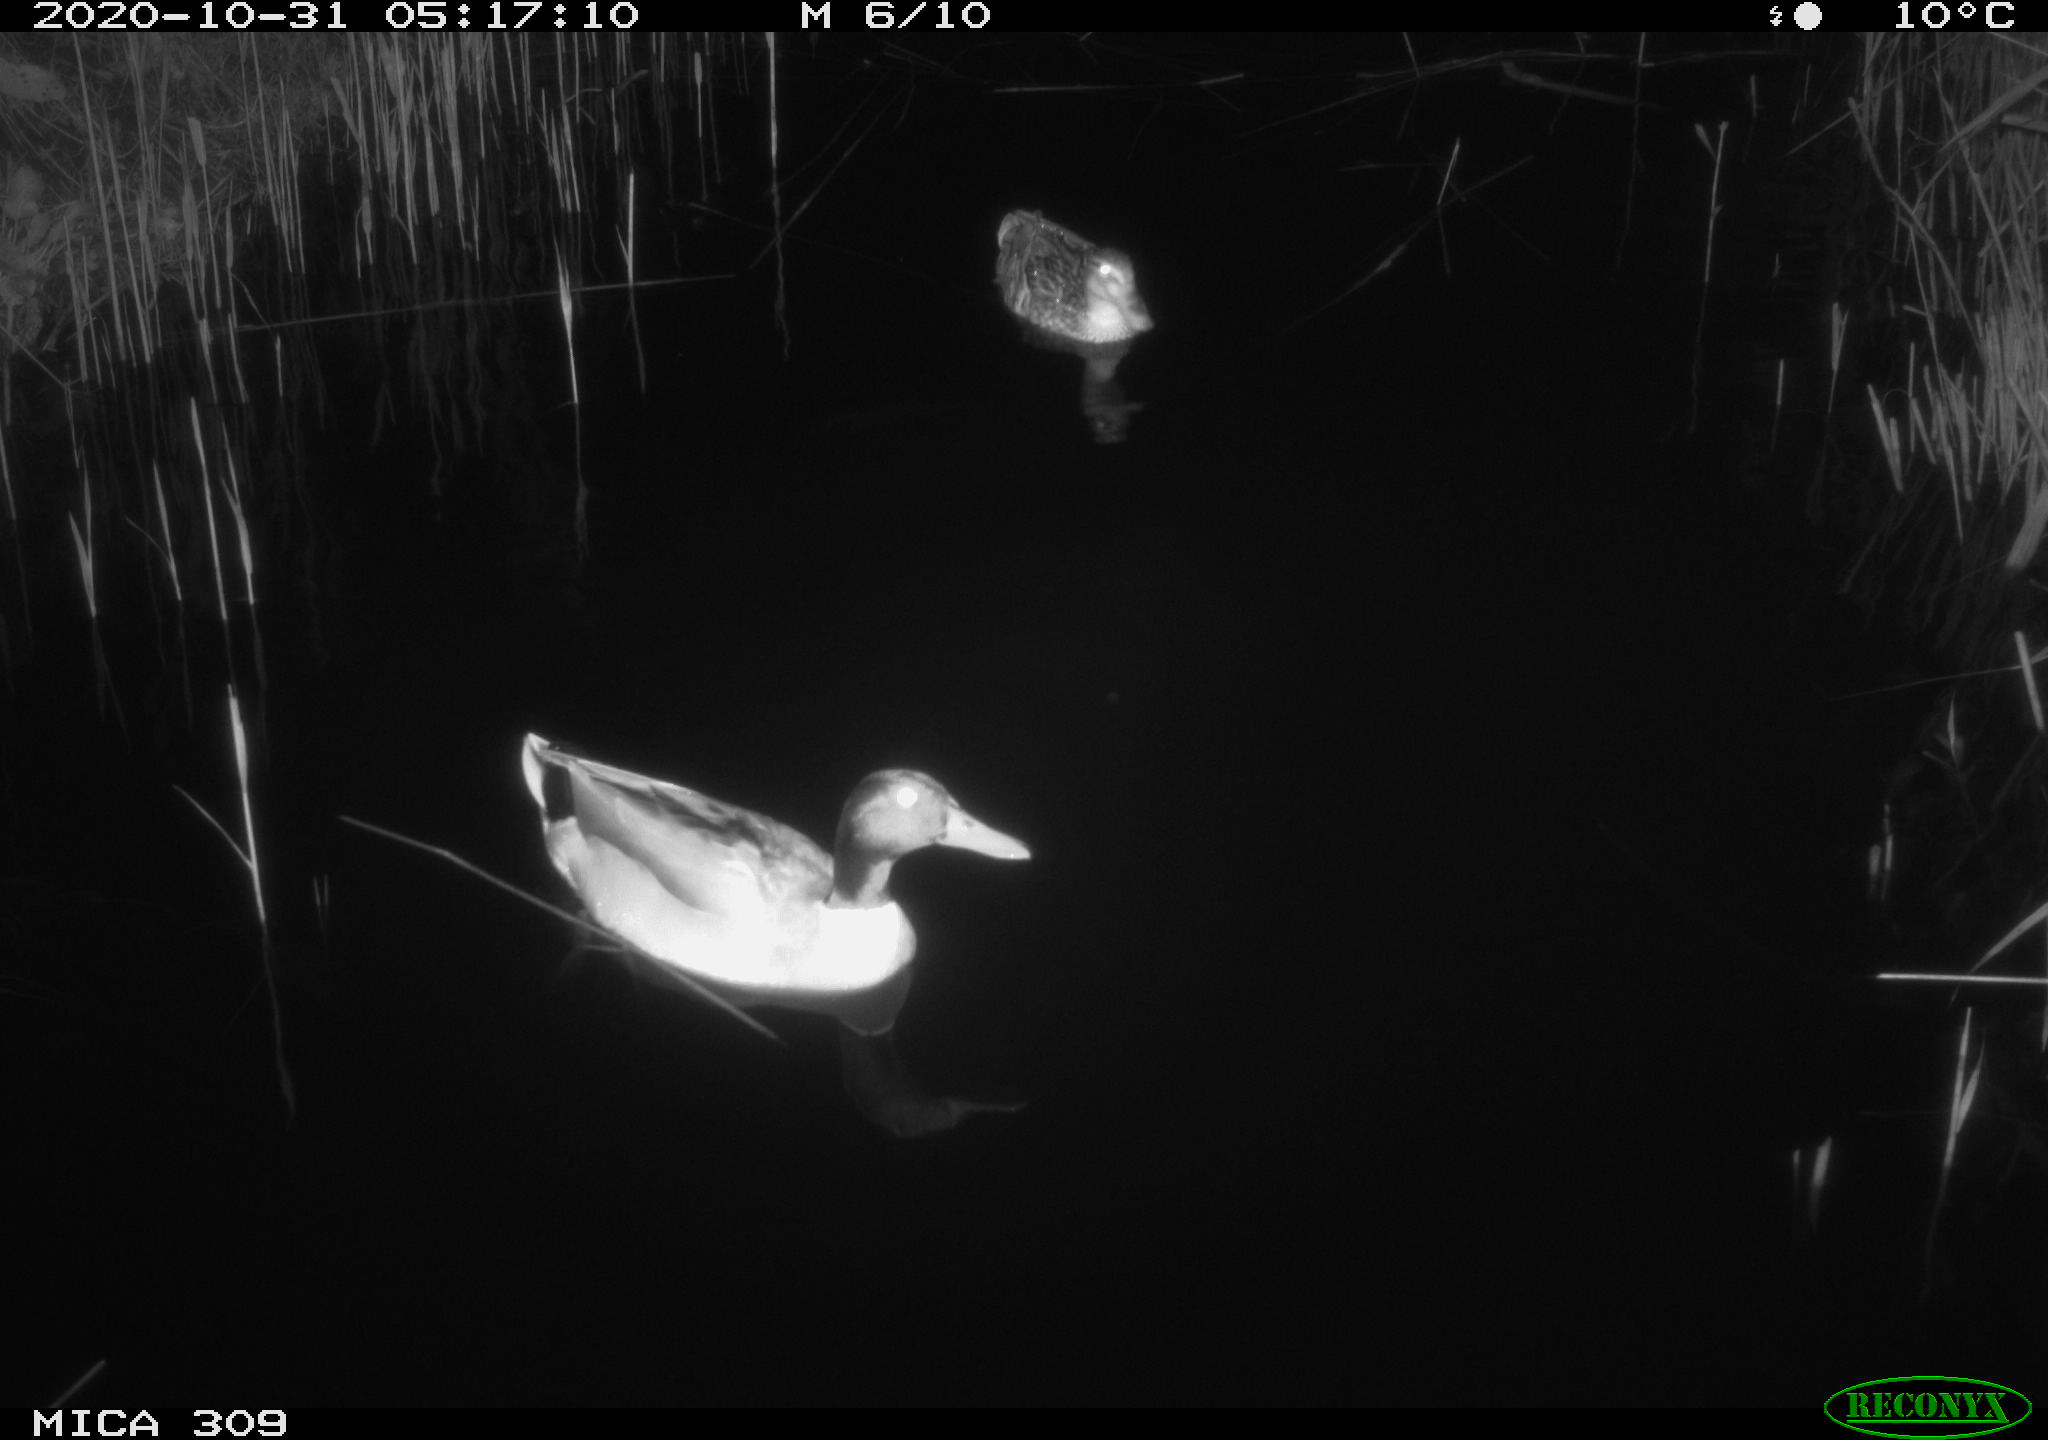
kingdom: Animalia
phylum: Chordata
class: Aves
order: Anseriformes
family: Anatidae
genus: Anas
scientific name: Anas platyrhynchos
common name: Mallard
